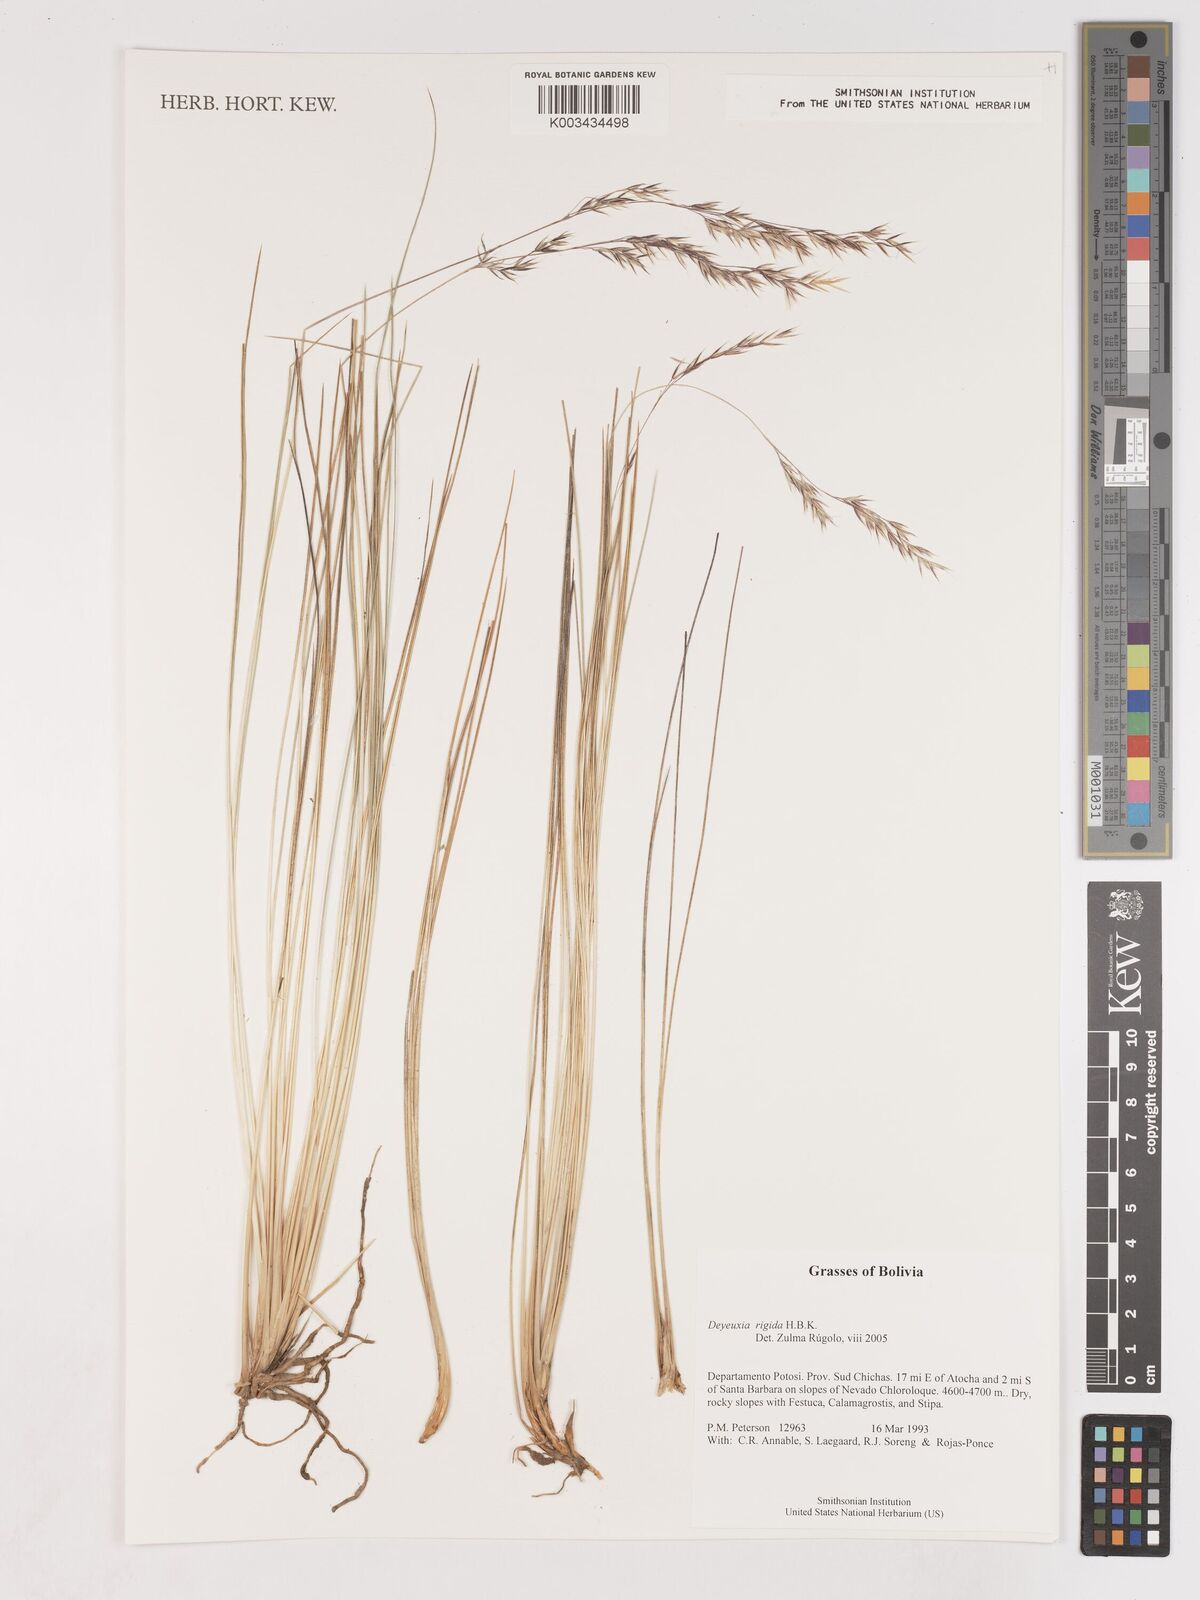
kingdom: Plantae
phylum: Tracheophyta
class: Liliopsida
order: Poales
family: Poaceae
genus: Cinnagrostis
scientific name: Cinnagrostis rigida
